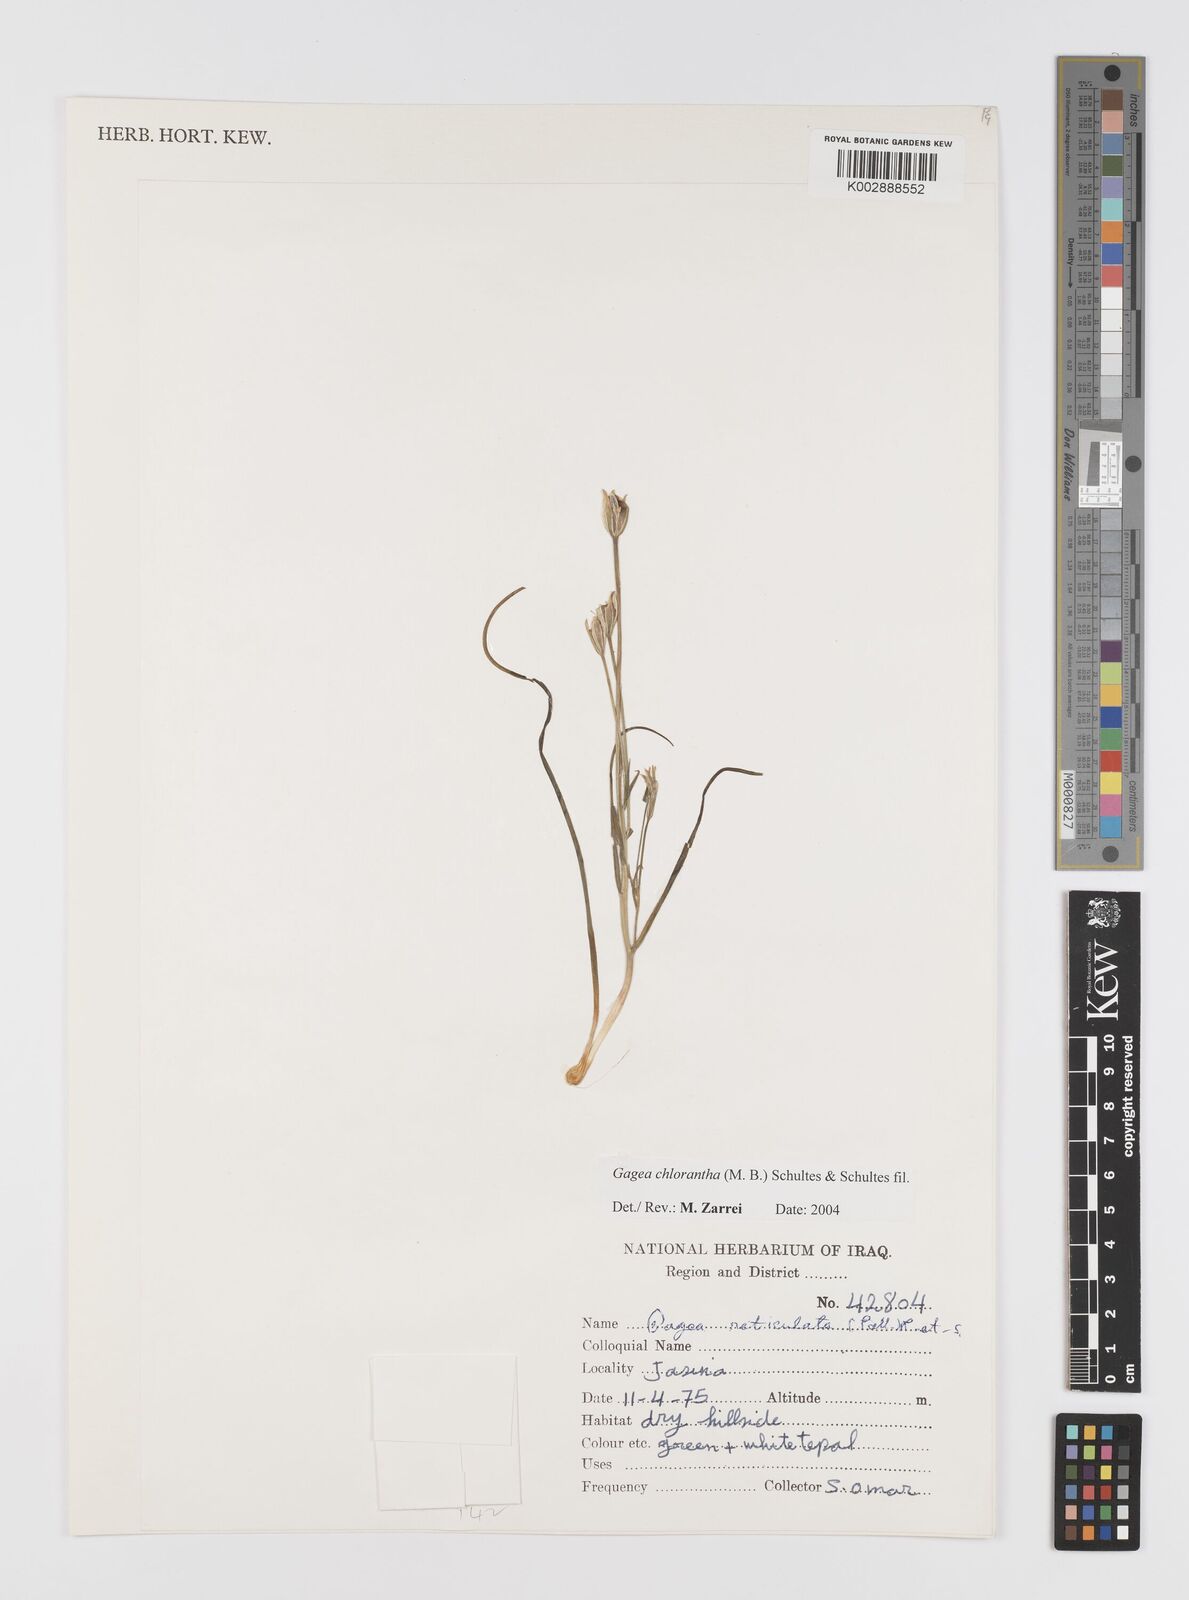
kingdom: Plantae
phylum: Tracheophyta
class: Liliopsida
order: Liliales
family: Liliaceae
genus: Gagea
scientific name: Gagea chlorantha
